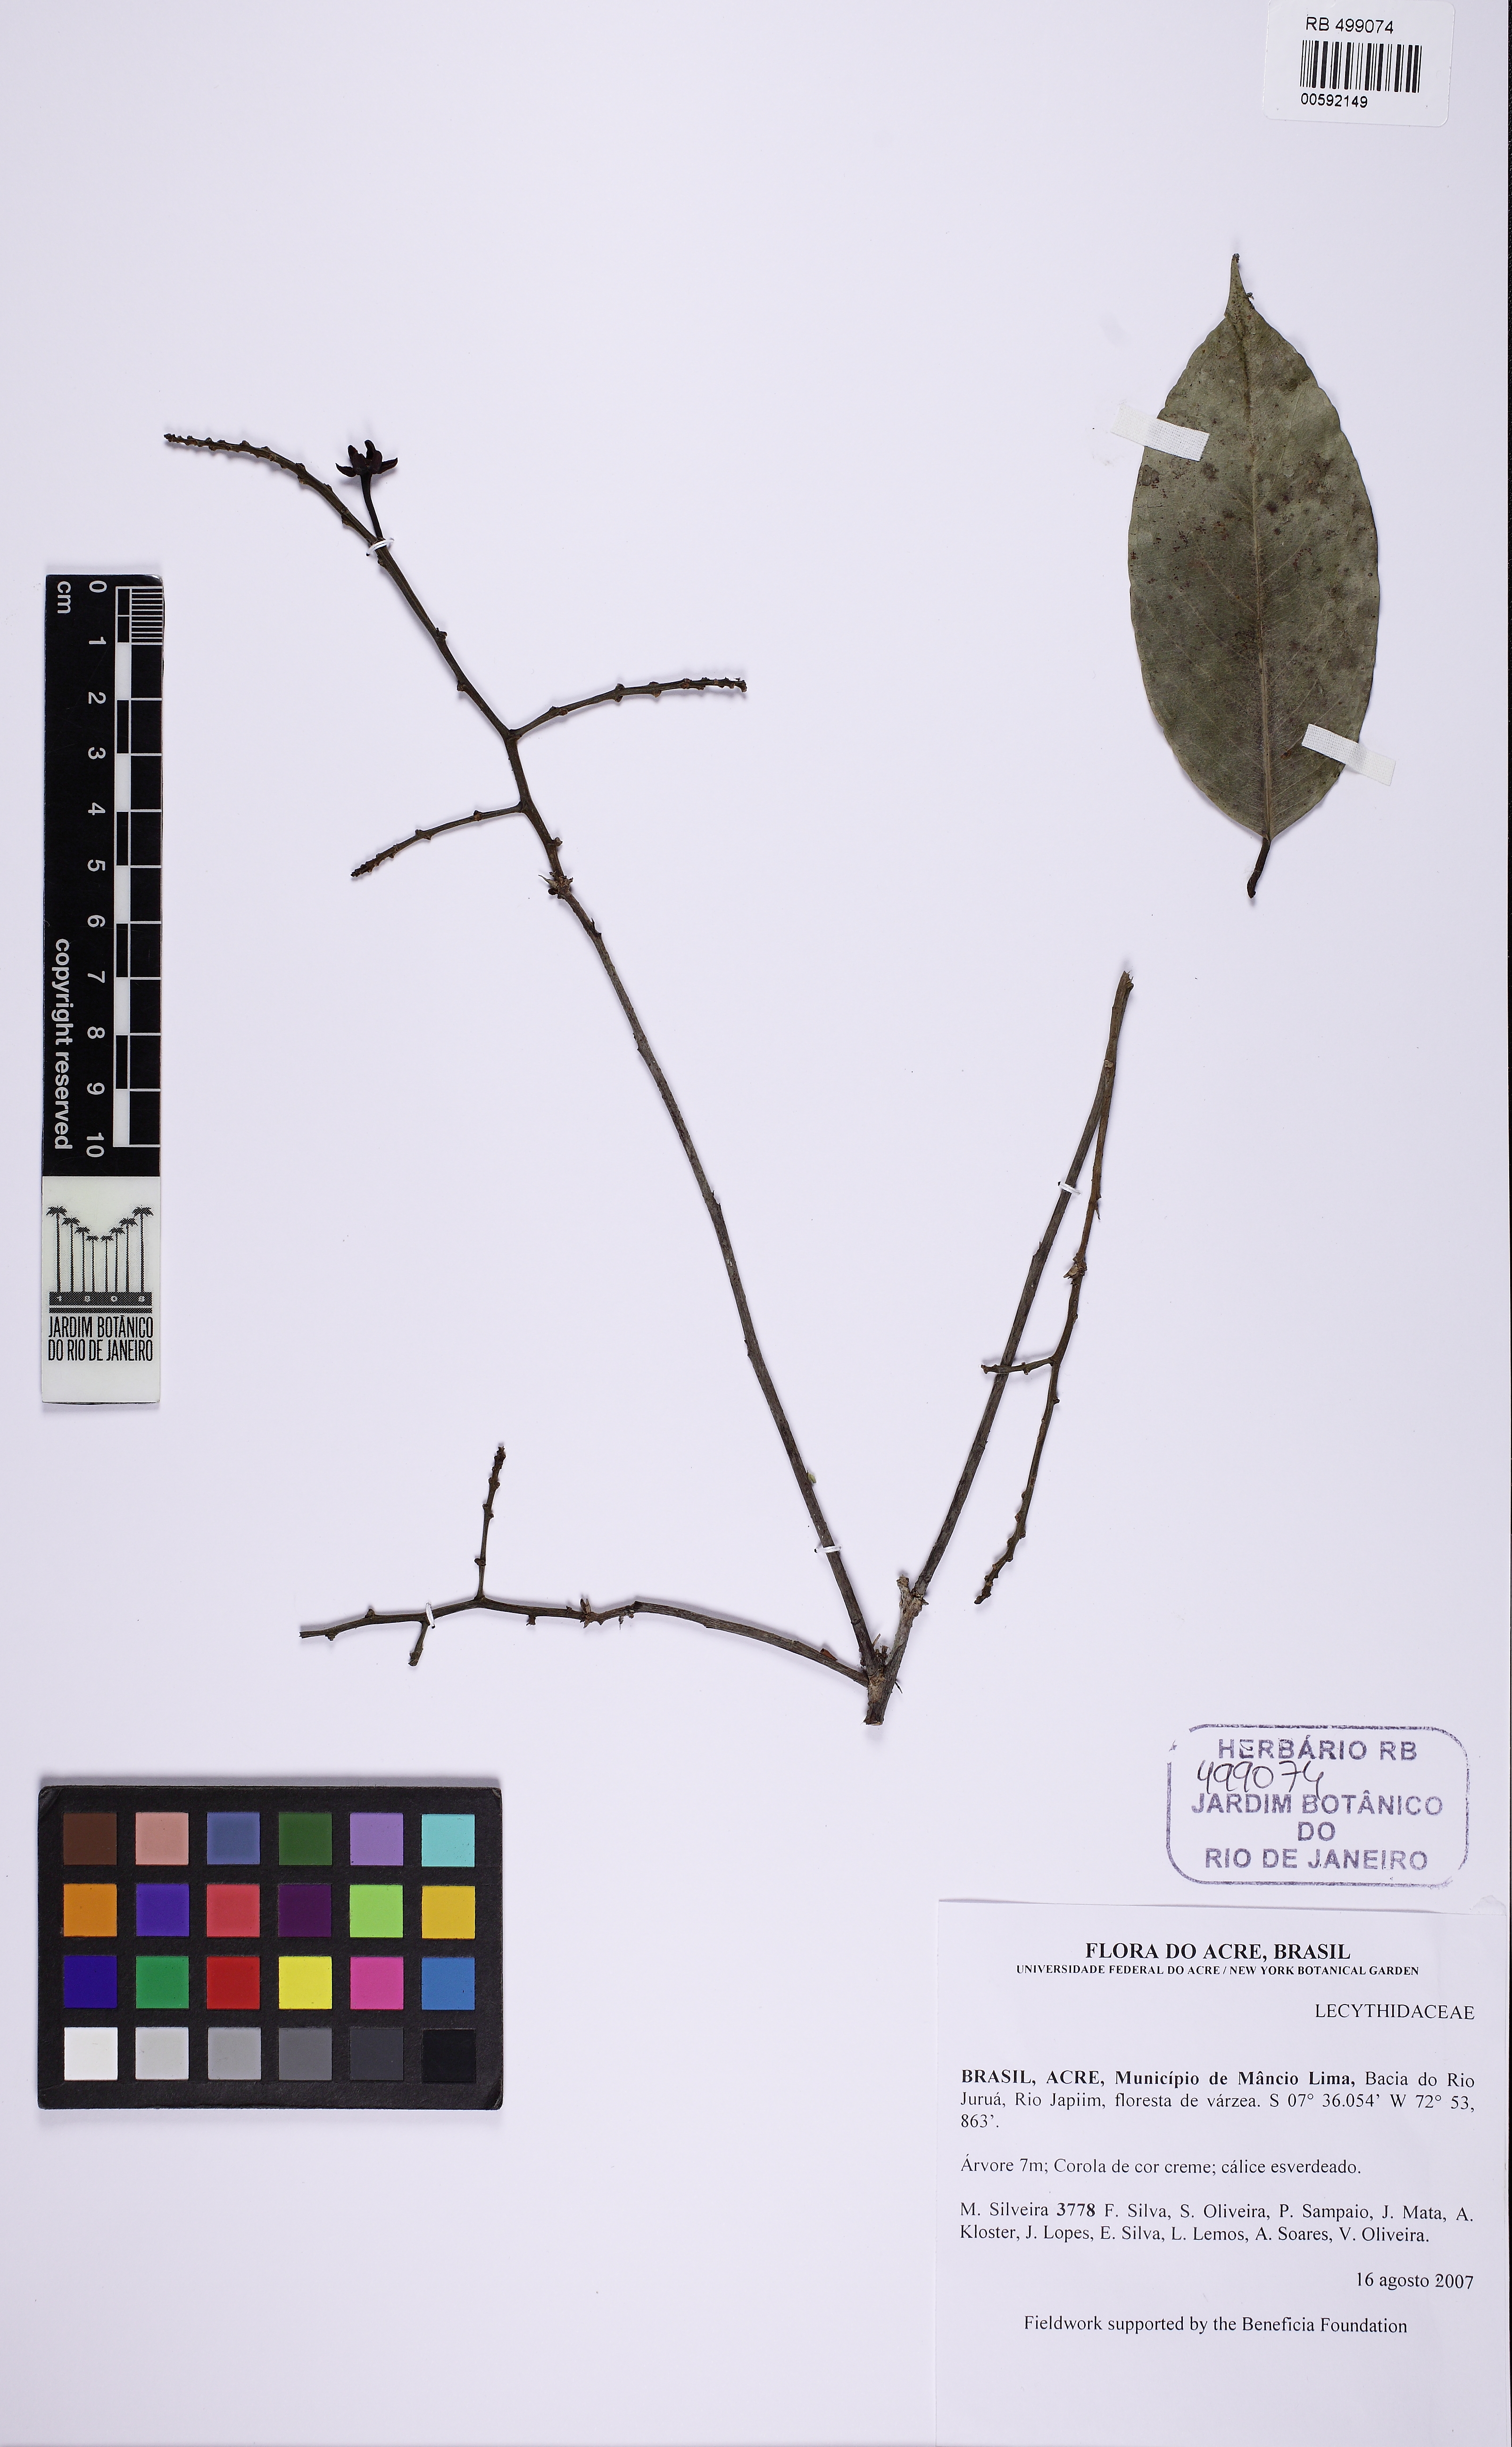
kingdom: Plantae
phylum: Tracheophyta
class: Magnoliopsida
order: Ericales
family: Lecythidaceae
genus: Eschweilera
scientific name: Eschweilera
